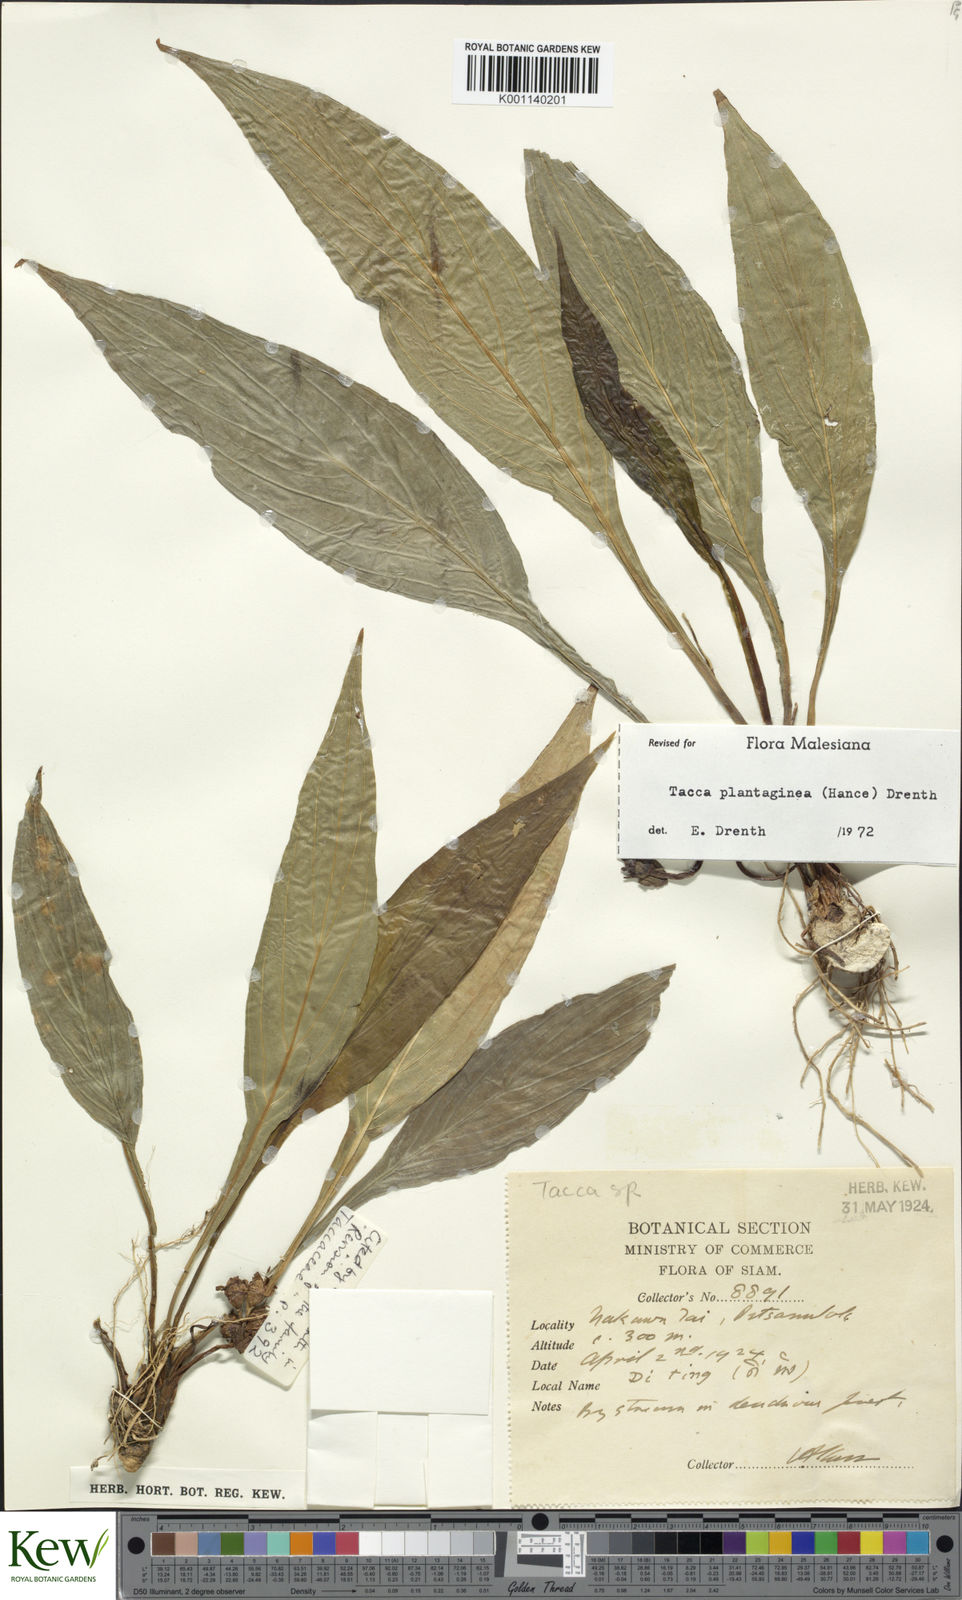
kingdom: Plantae
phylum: Tracheophyta
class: Liliopsida
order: Dioscoreales
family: Dioscoreaceae
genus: Tacca
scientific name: Tacca plantaginea
